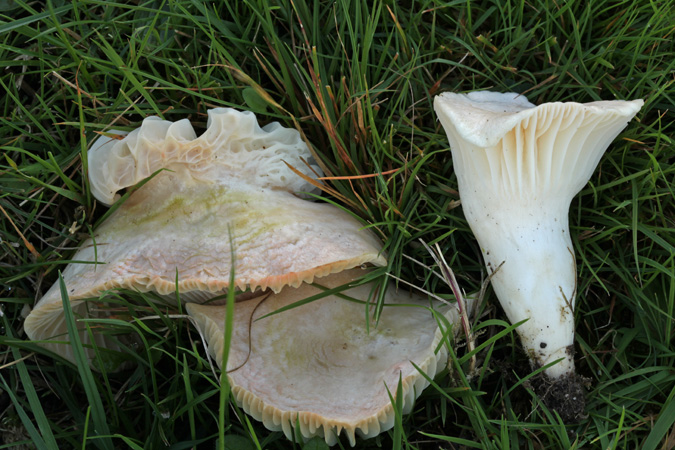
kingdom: Fungi
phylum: Basidiomycota
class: Agaricomycetes
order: Agaricales
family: Hygrophoraceae
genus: Cuphophyllus
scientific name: Cuphophyllus pratensis
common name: bleg vokshat
